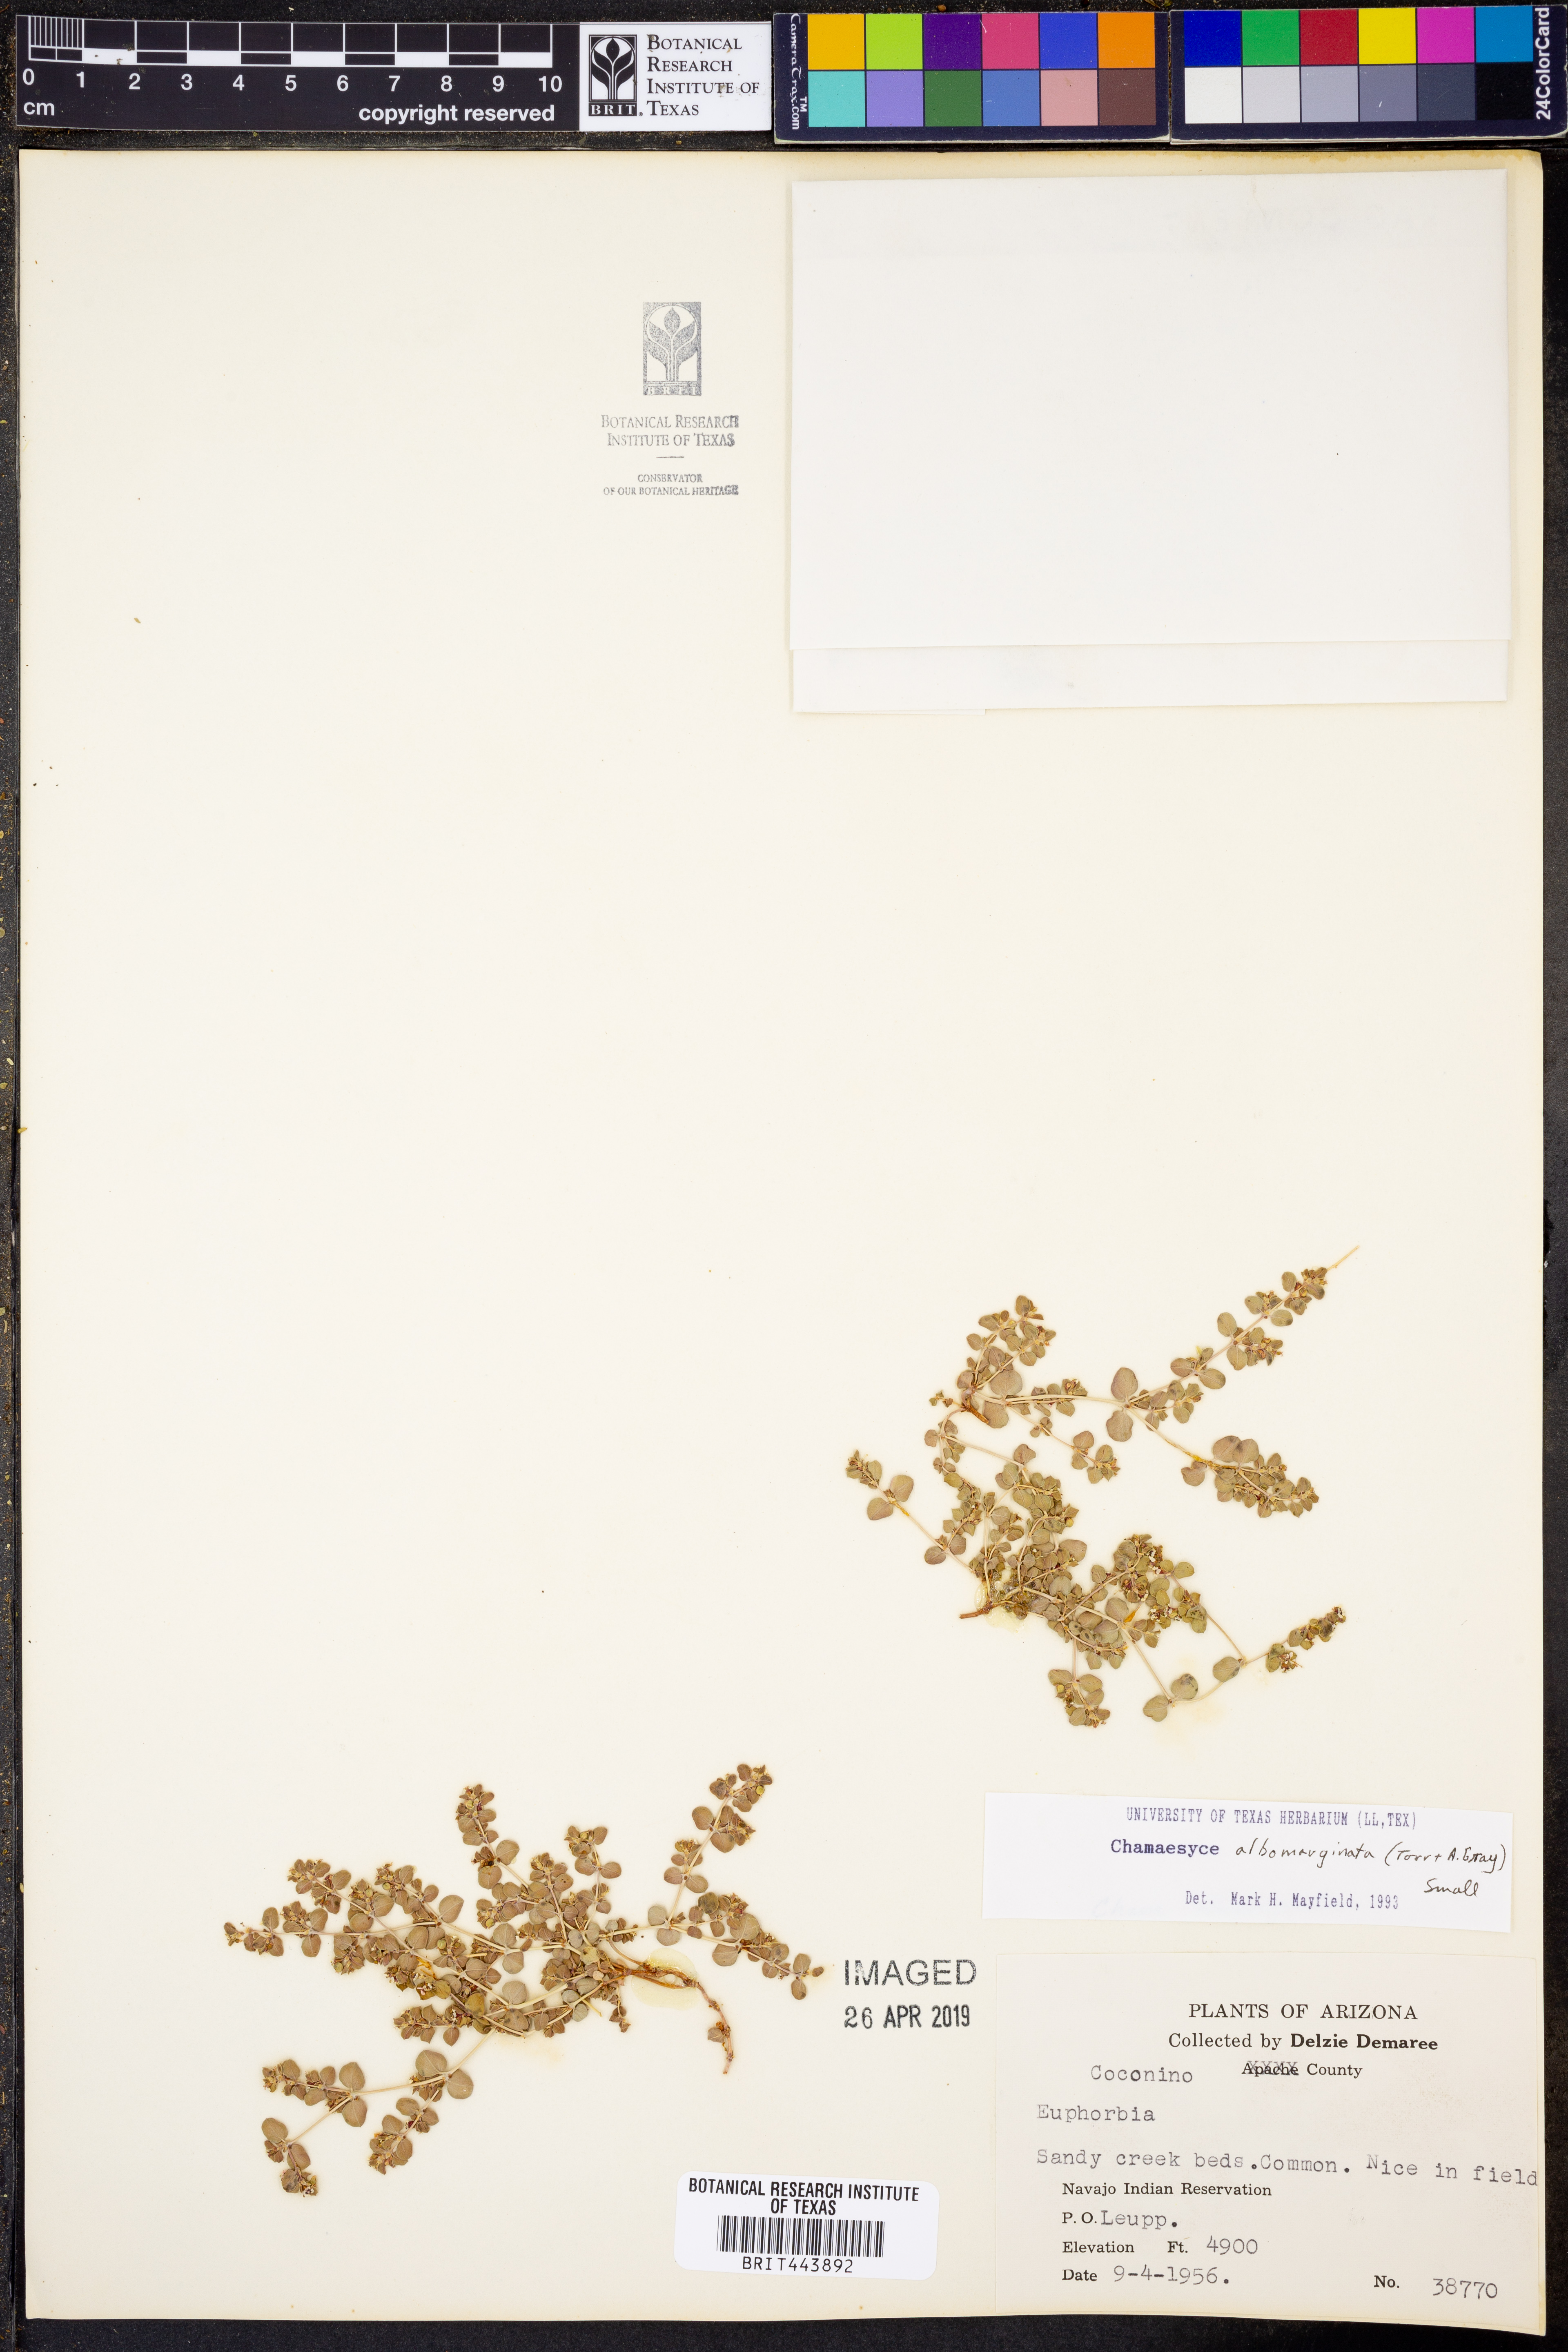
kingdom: Plantae
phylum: Tracheophyta
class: Magnoliopsida
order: Malpighiales
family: Euphorbiaceae
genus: Euphorbia
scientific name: Euphorbia albomarginata
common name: Whitemargin sandmat
